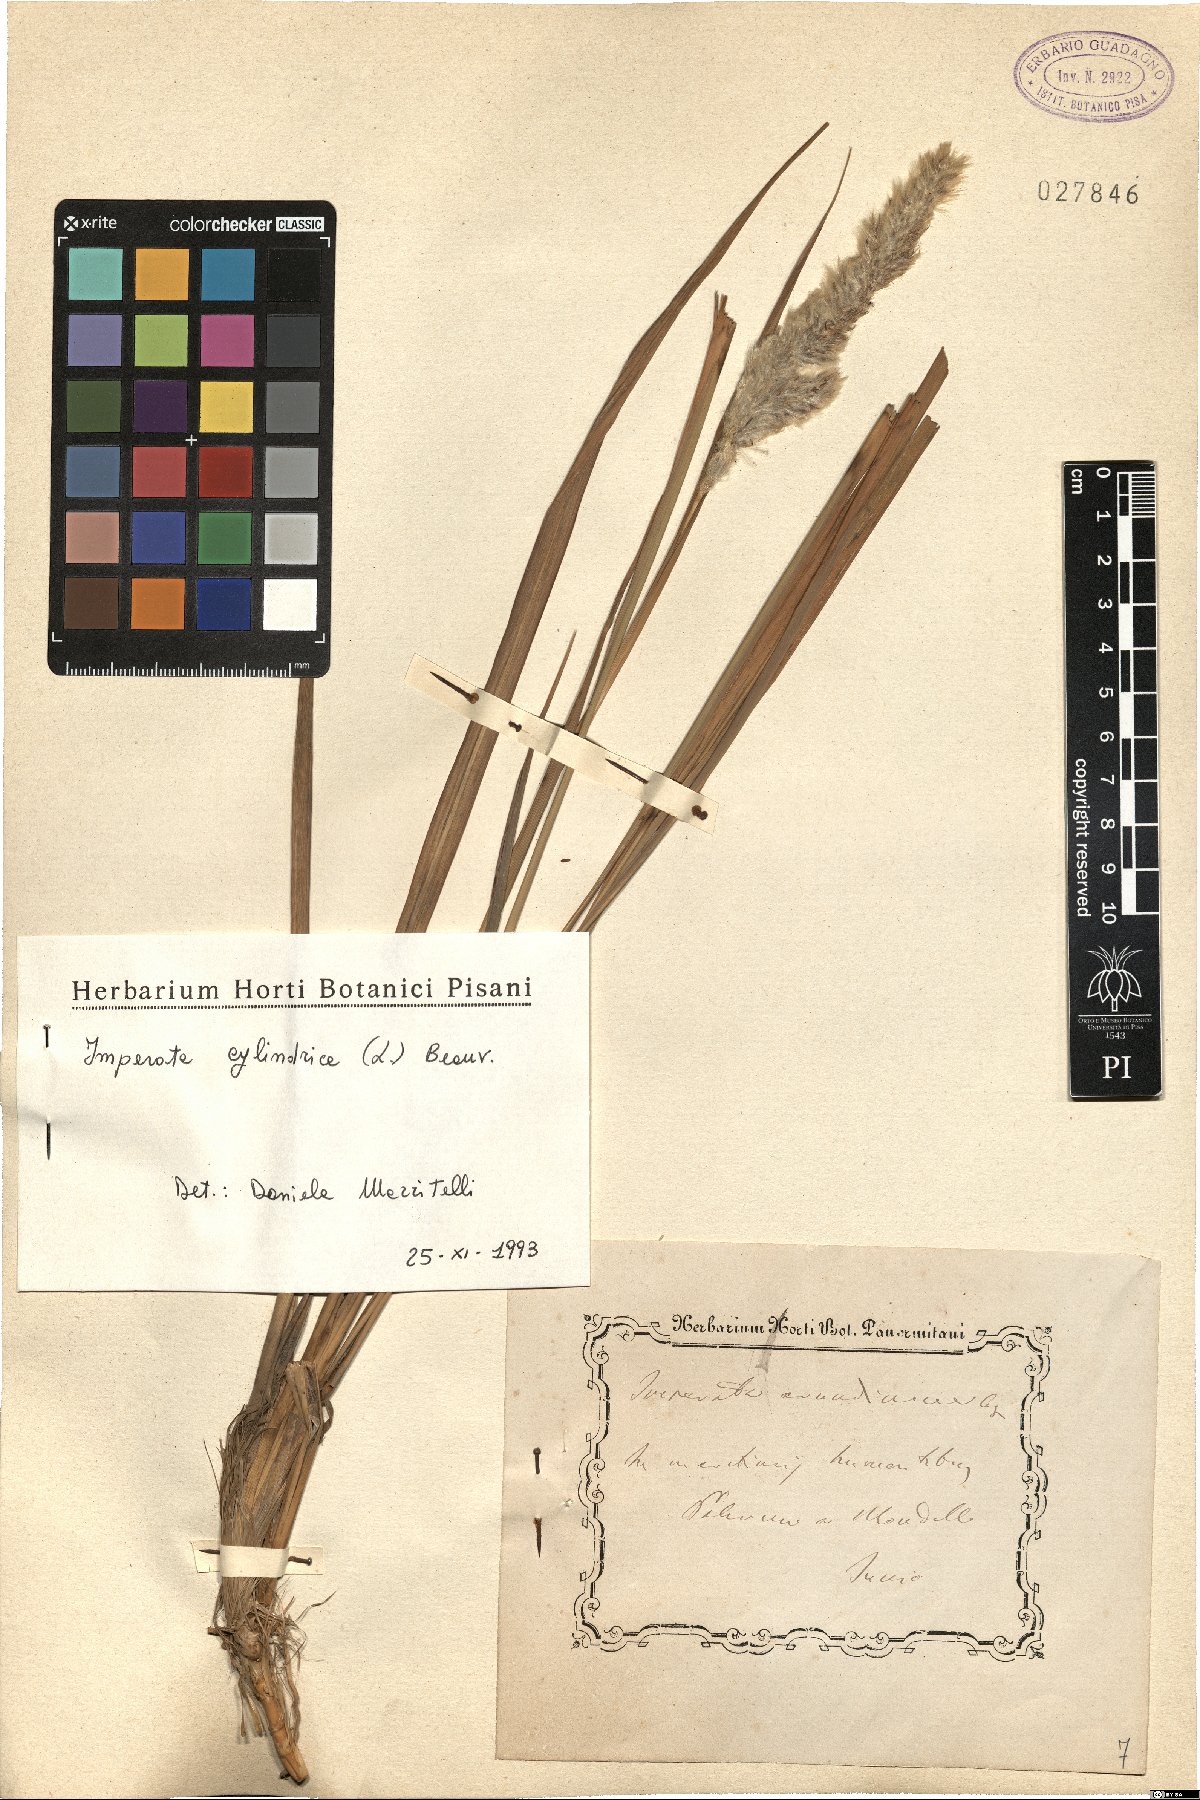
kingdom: Plantae
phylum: Tracheophyta
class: Liliopsida
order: Poales
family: Poaceae
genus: Imperata
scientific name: Imperata cylindrica
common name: Cogongrass
